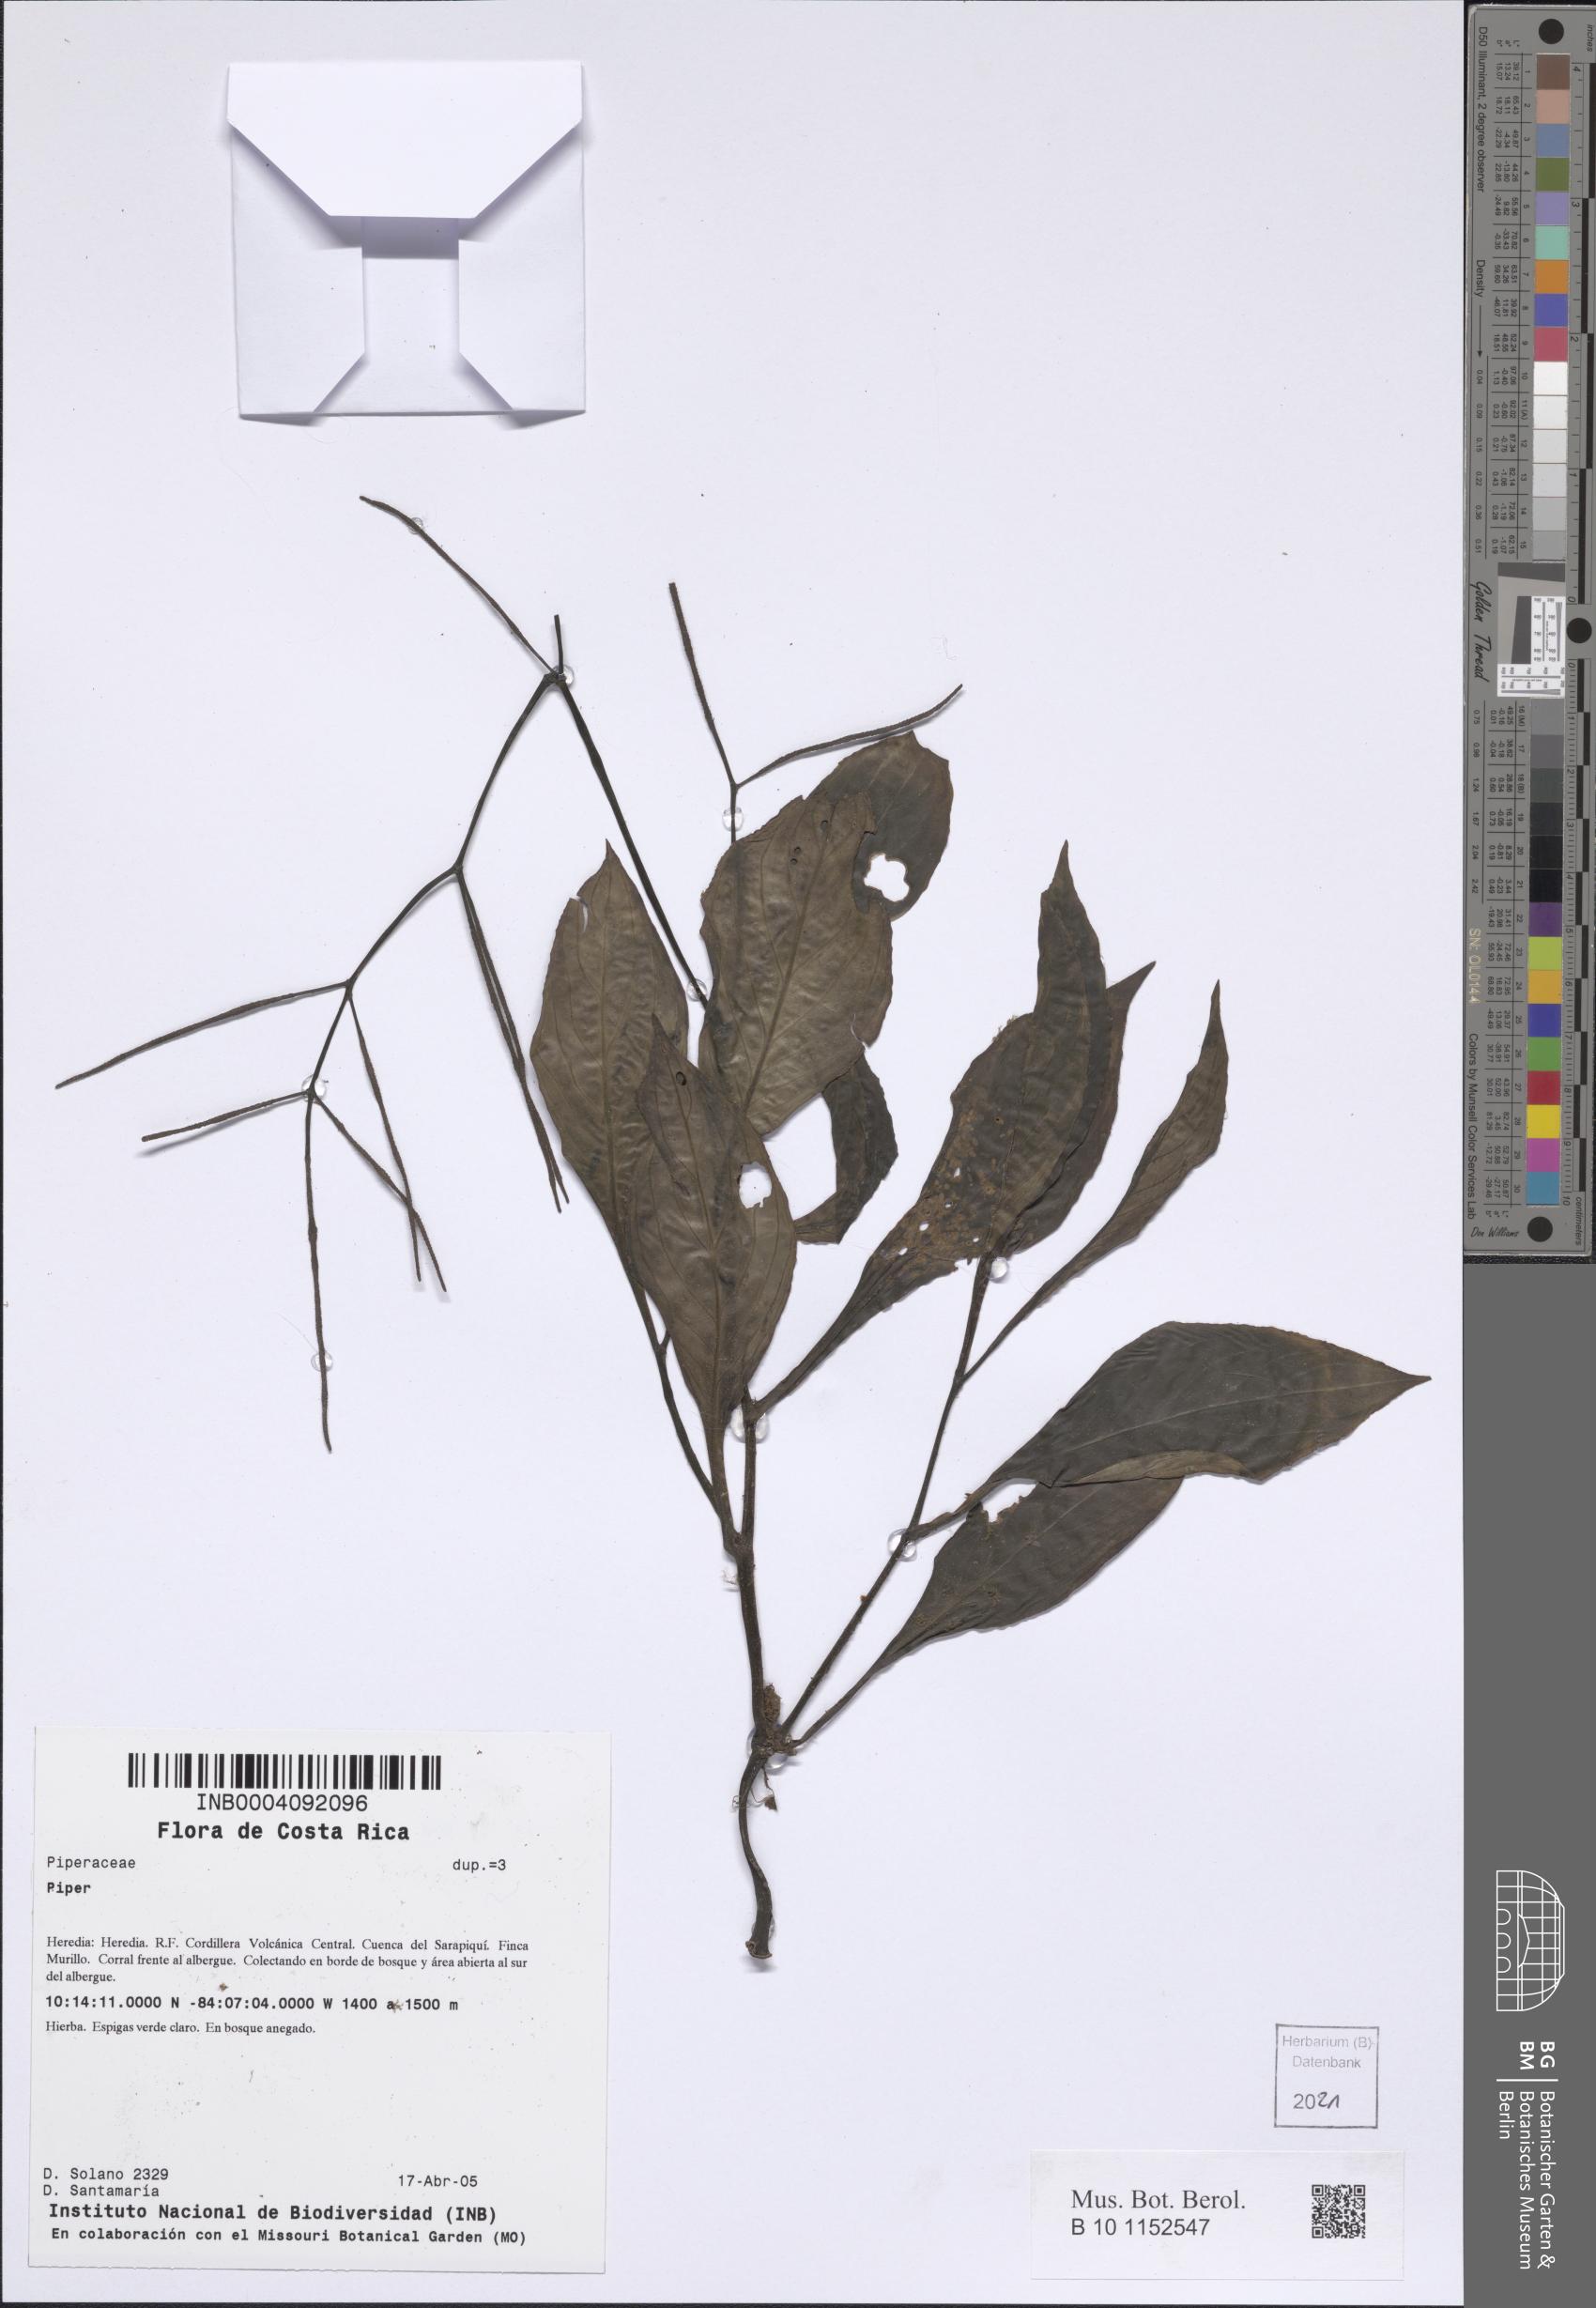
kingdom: Plantae
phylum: Tracheophyta
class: Magnoliopsida
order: Piperales
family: Piperaceae
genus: Piper
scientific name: Piper
